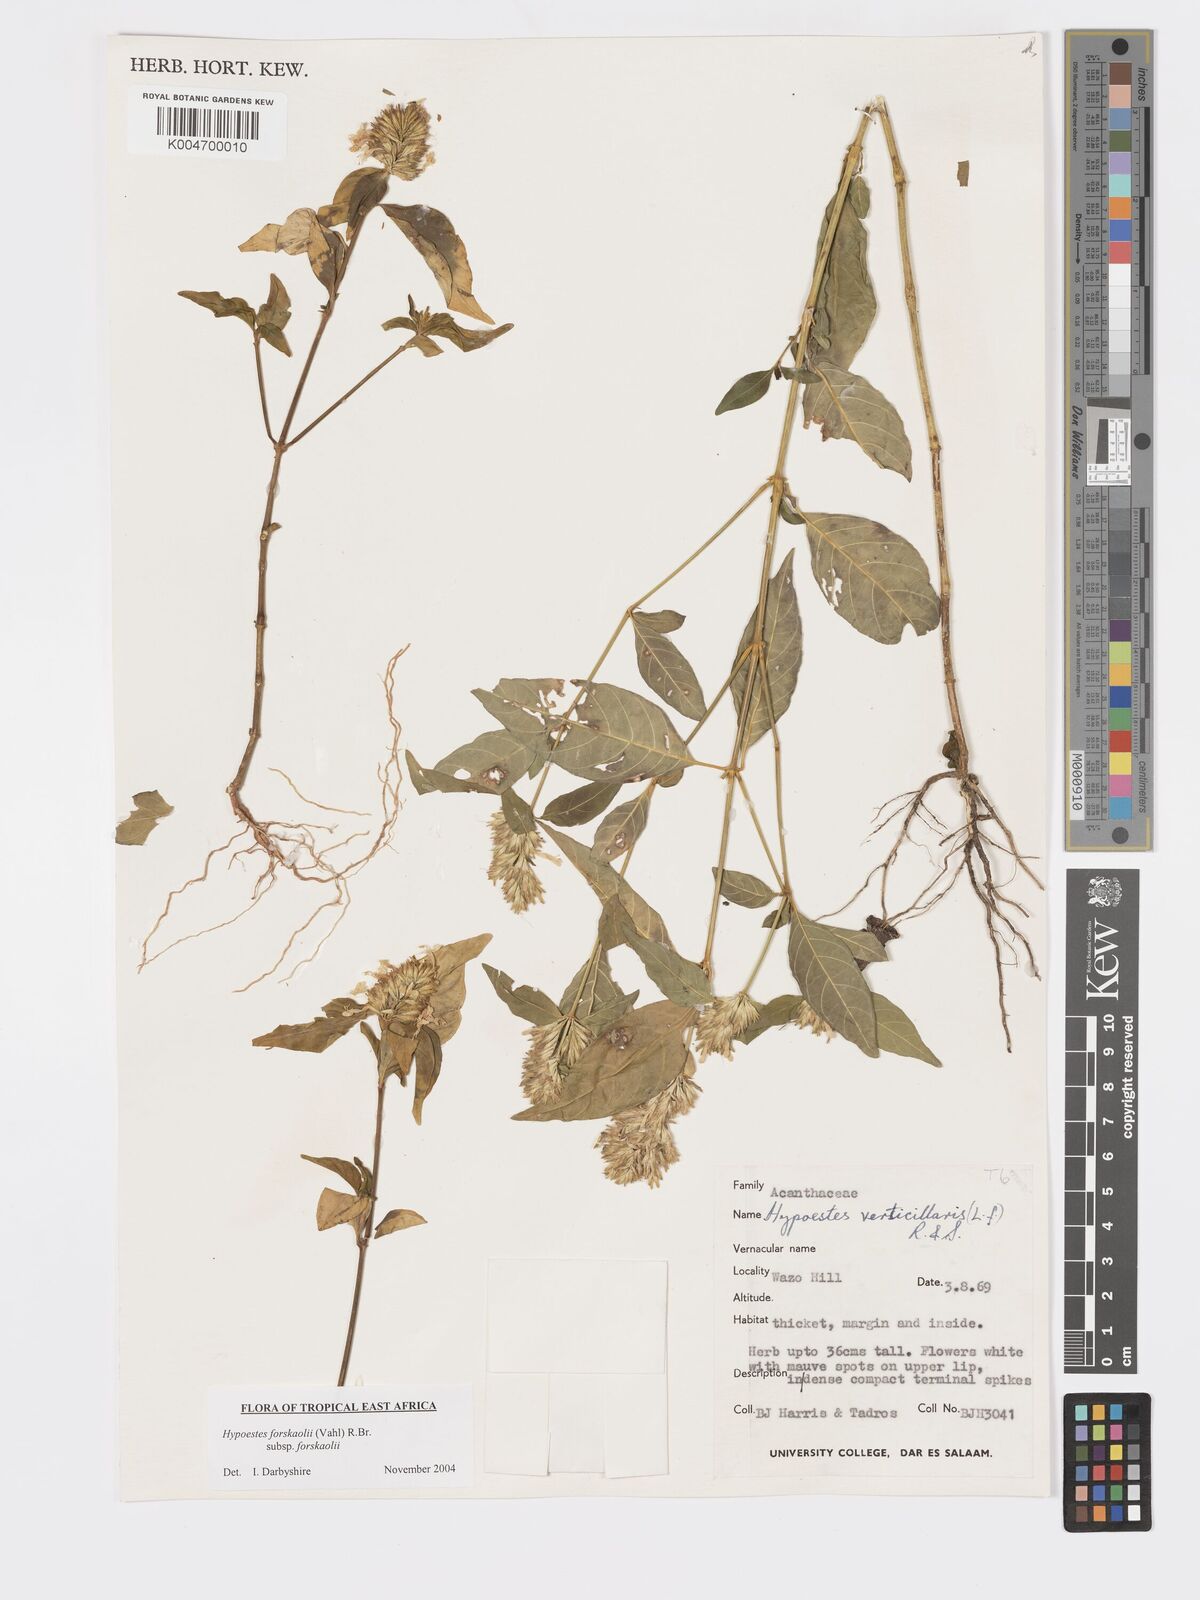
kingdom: Plantae
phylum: Tracheophyta
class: Magnoliopsida
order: Lamiales
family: Acanthaceae
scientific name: Acanthaceae
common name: Acanthaceae
